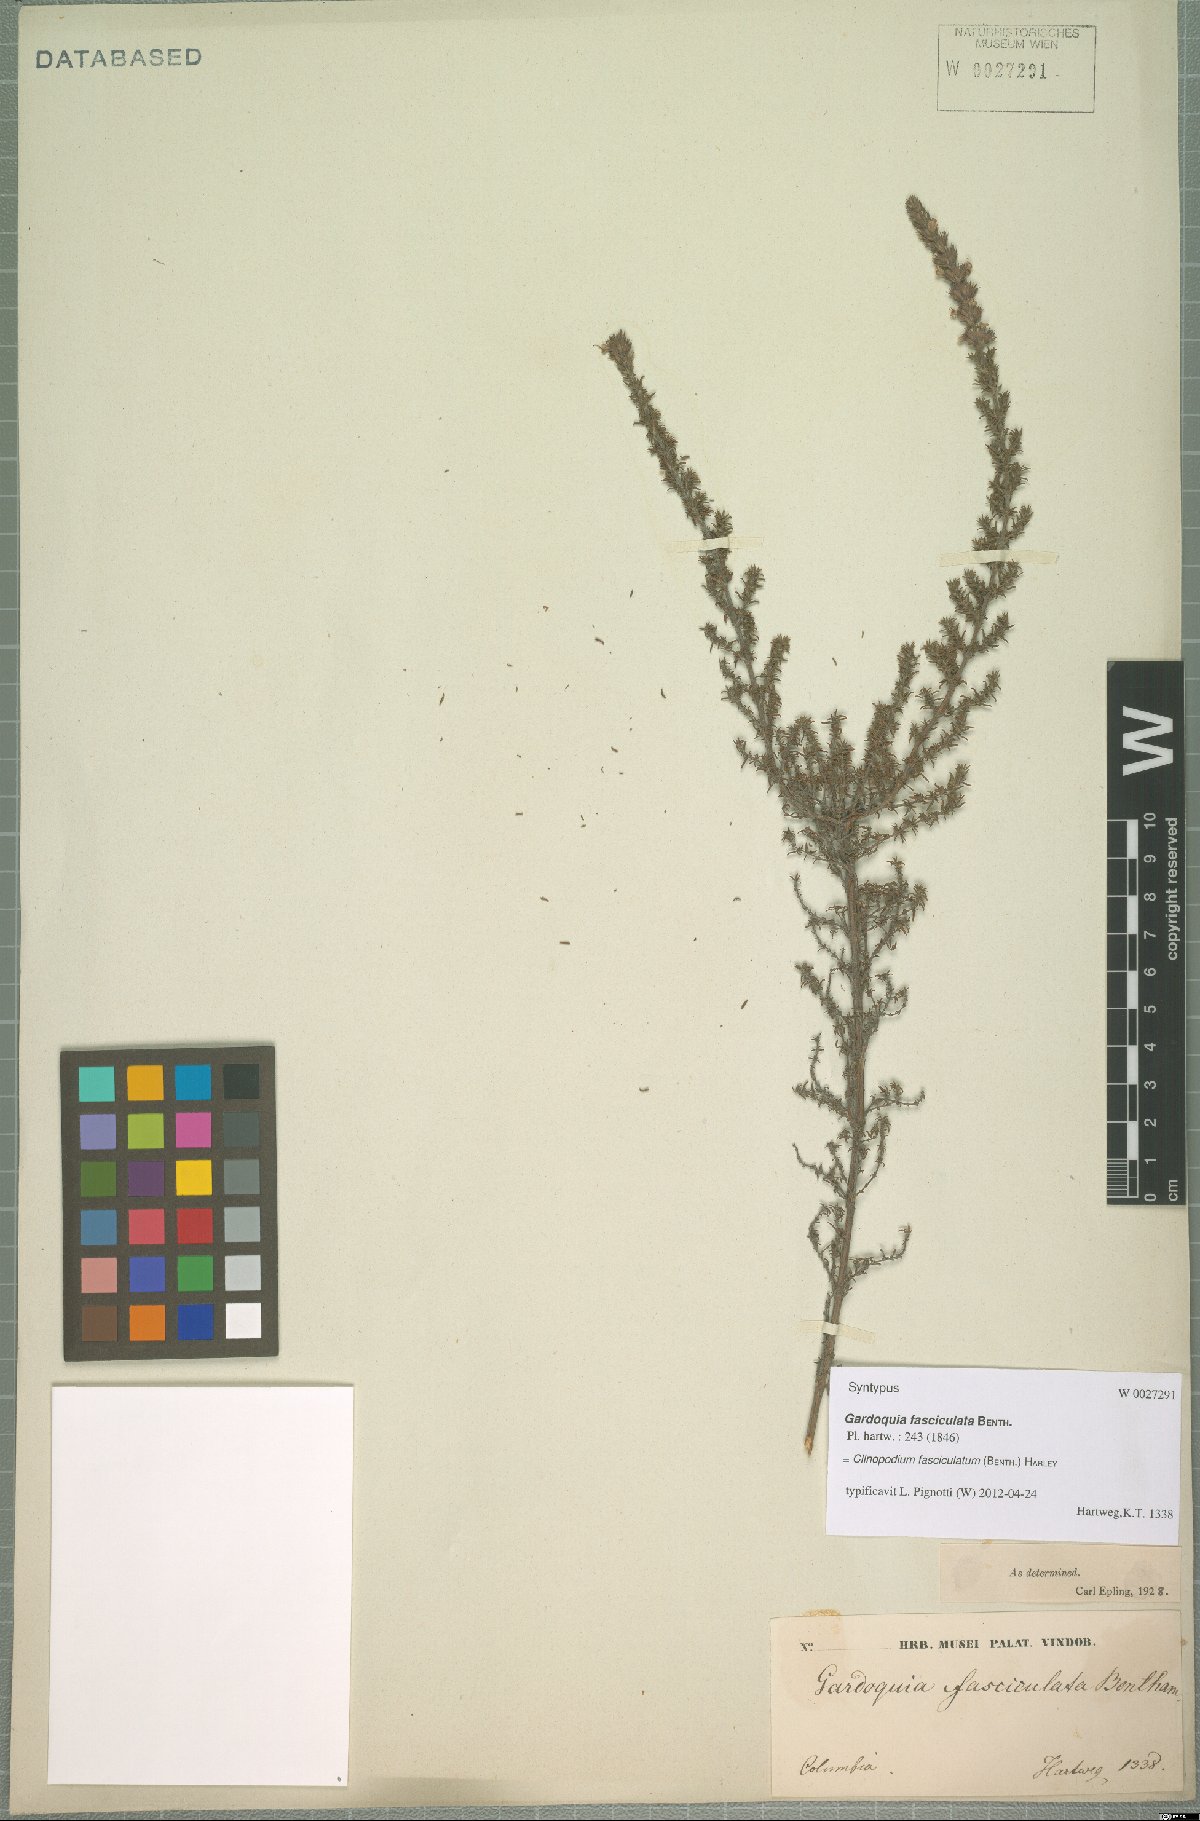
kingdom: Plantae
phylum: Tracheophyta
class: Magnoliopsida
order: Lamiales
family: Lamiaceae
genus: Clinopodium
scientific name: Clinopodium fasciculatum
